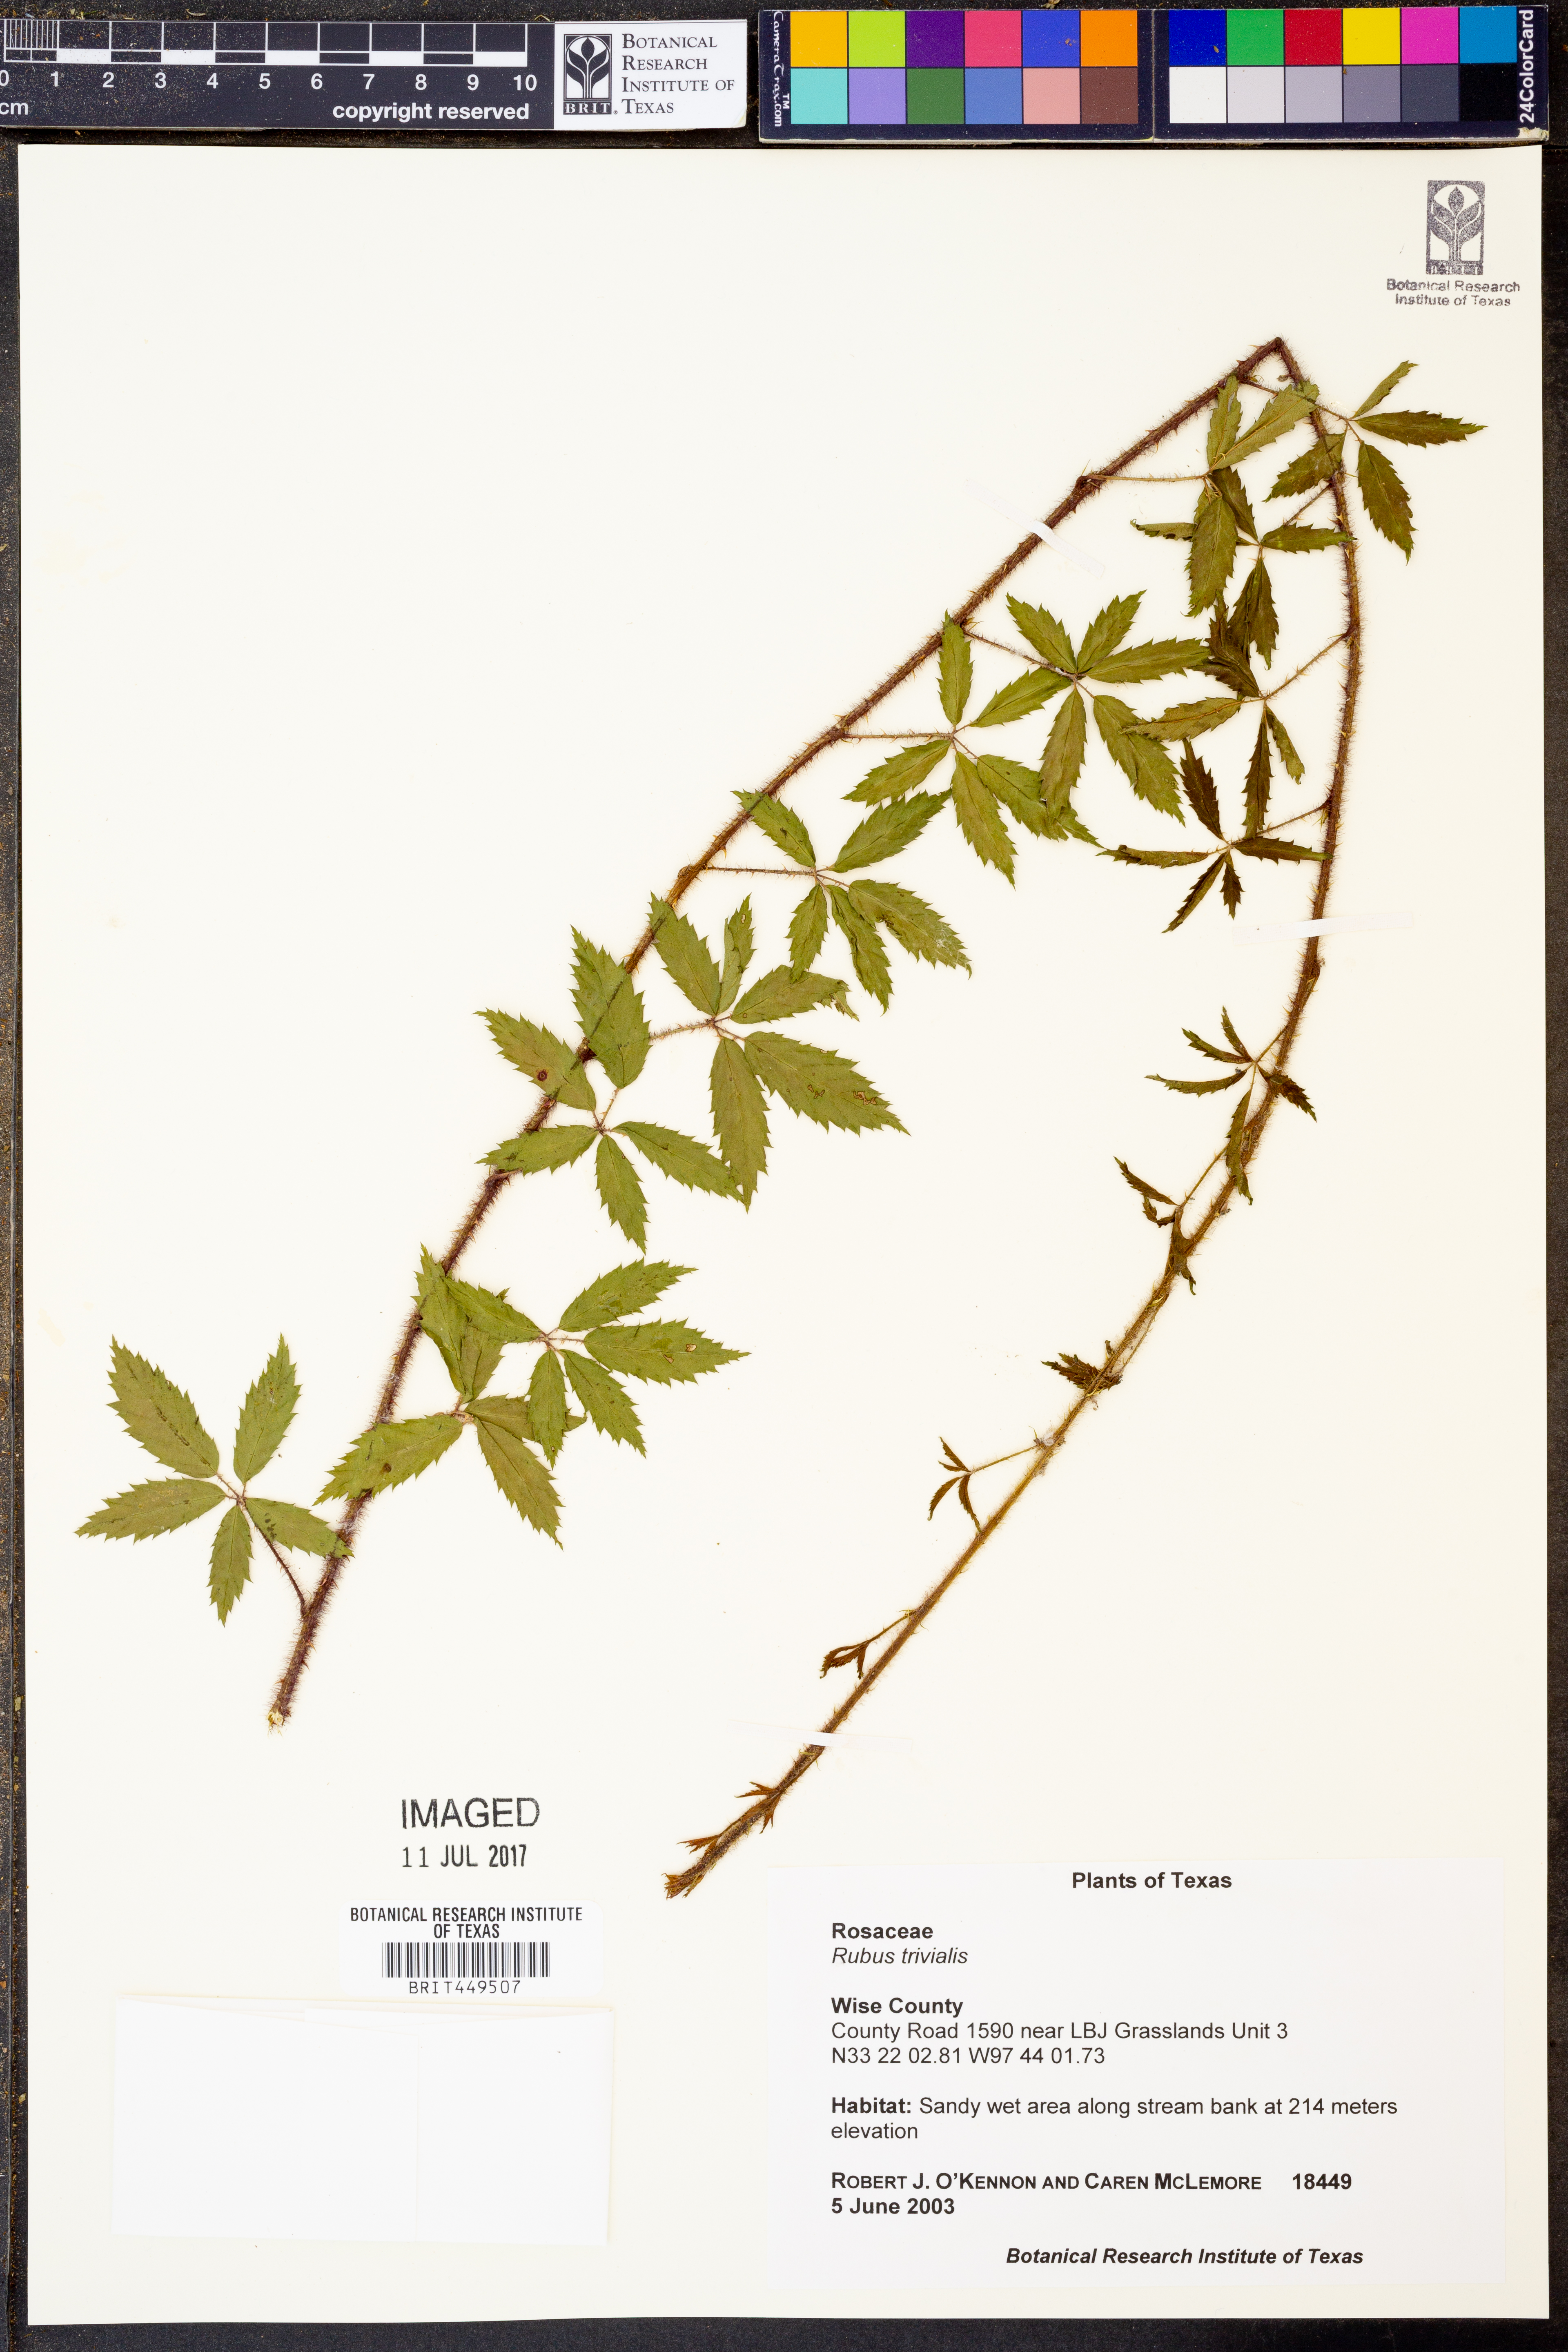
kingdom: Plantae
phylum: Tracheophyta
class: Magnoliopsida
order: Rosales
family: Rosaceae
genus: Rubus
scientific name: Rubus trivialis
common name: Southern dewberry
